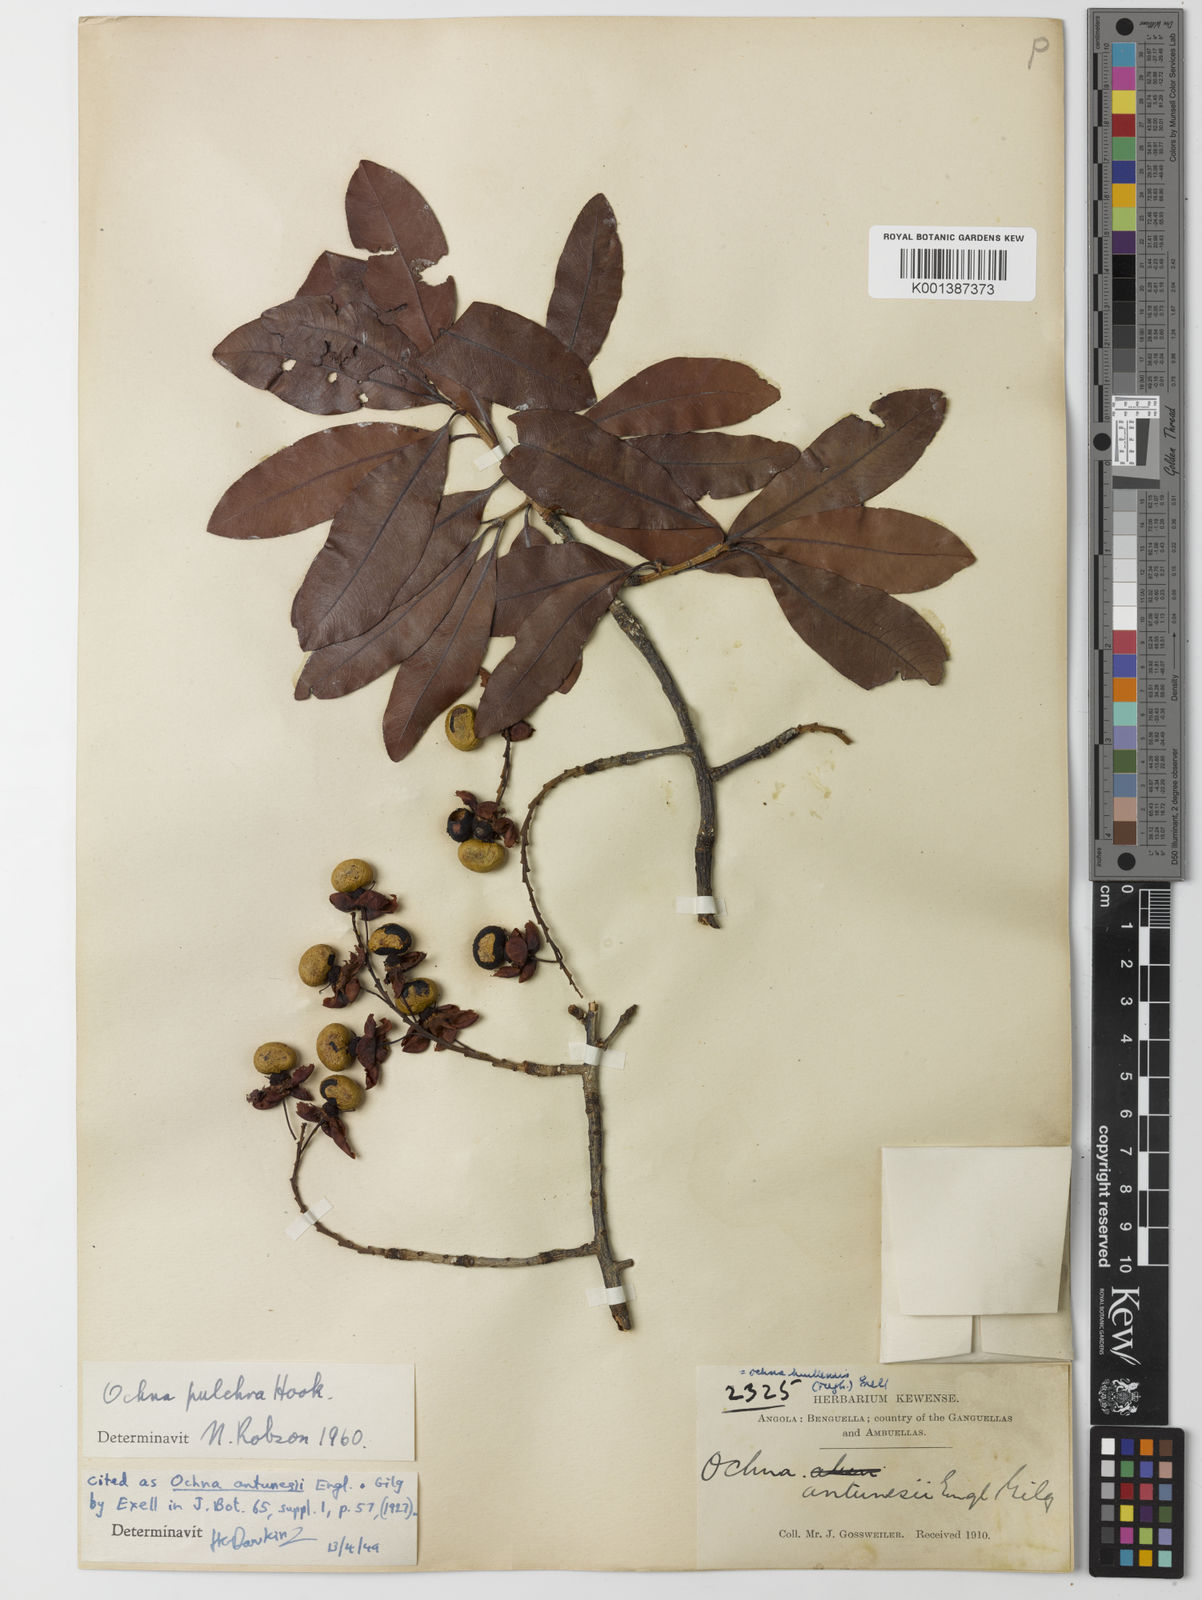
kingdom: Plantae
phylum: Tracheophyta
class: Magnoliopsida
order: Malpighiales
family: Ochnaceae
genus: Ochna
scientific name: Ochna pulchra
